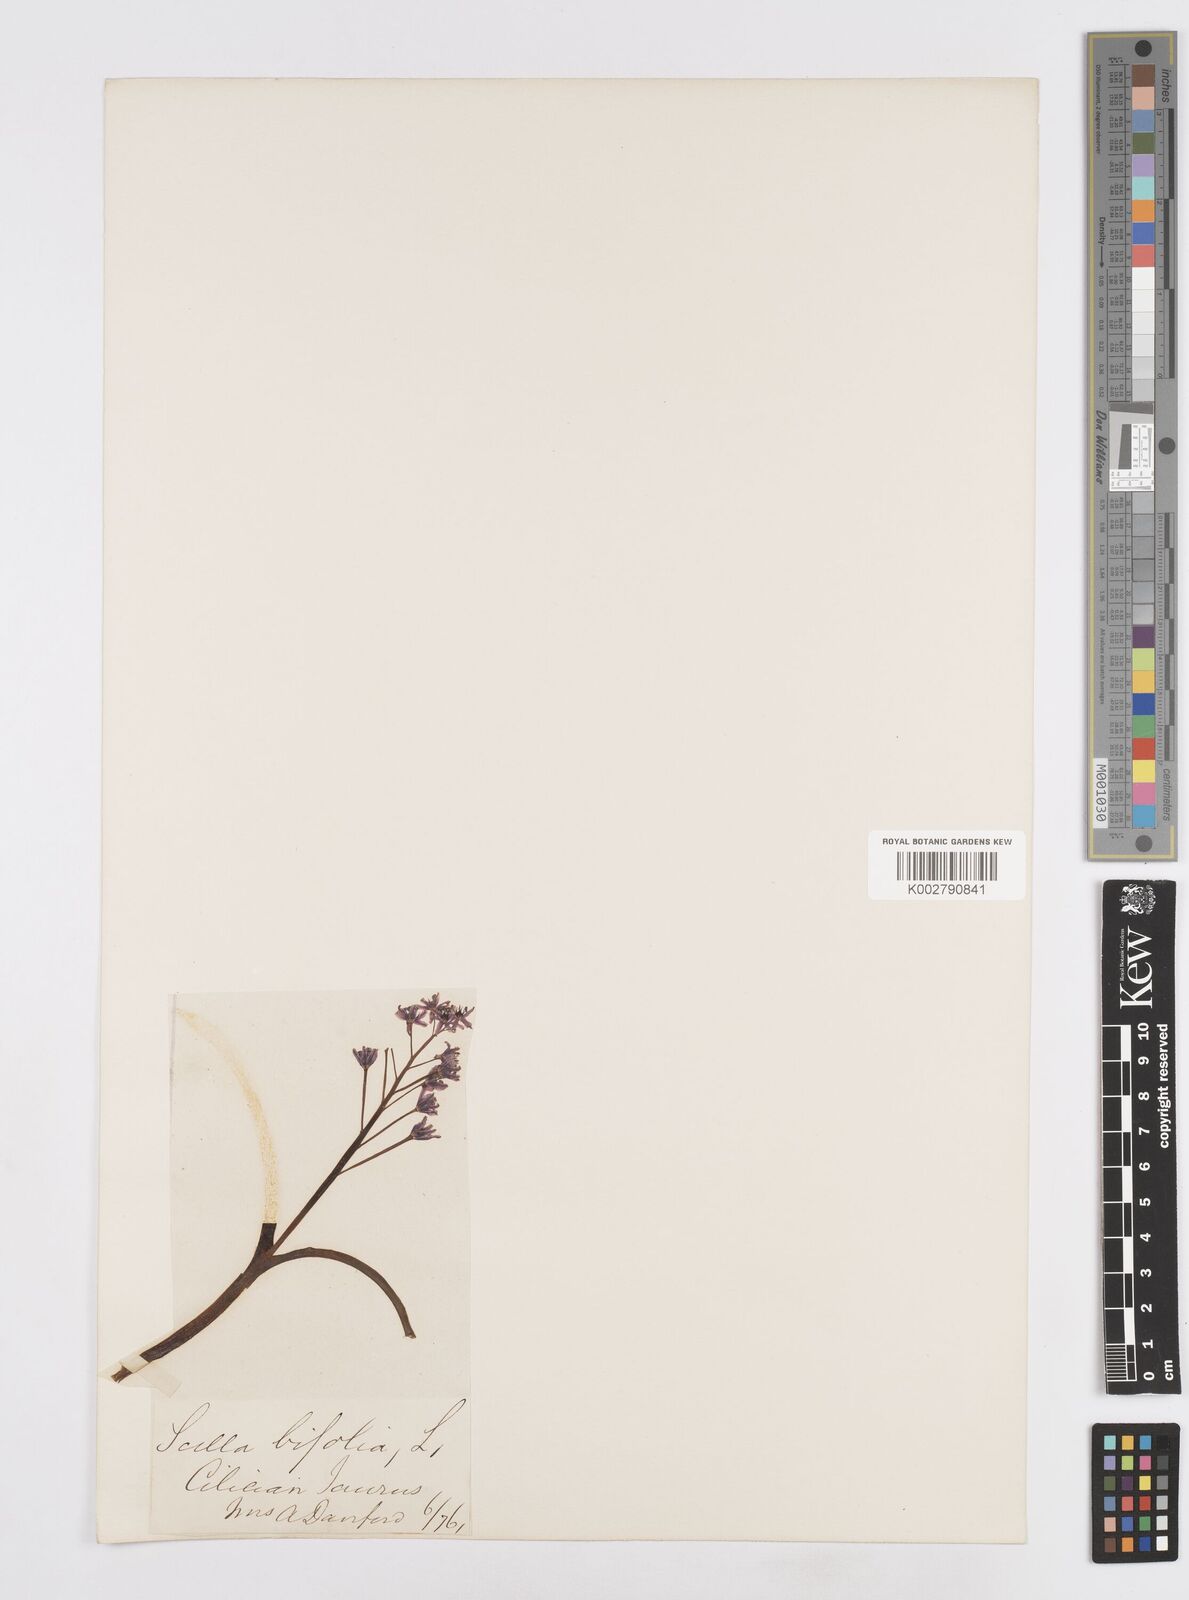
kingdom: Plantae
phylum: Tracheophyta
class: Liliopsida
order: Asparagales
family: Asparagaceae
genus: Scilla
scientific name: Scilla bifolia
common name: Alpine squill
